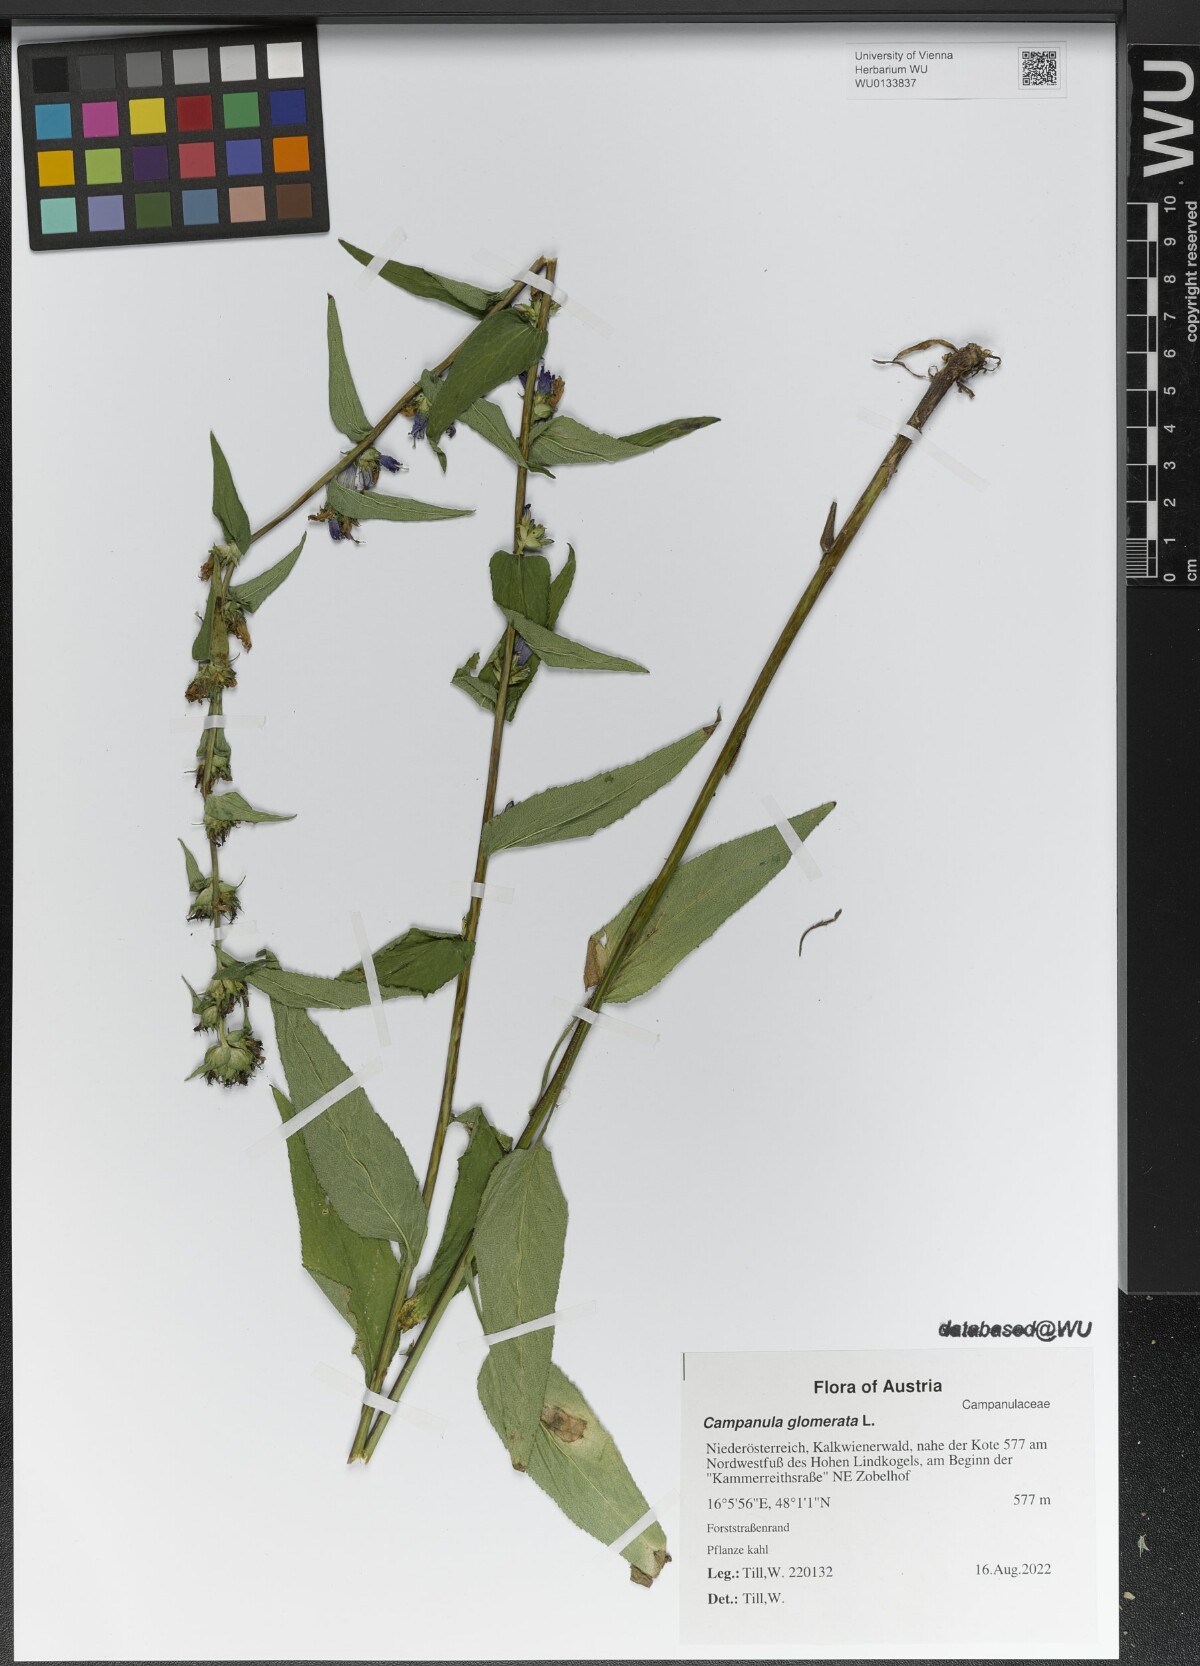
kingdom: Plantae
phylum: Tracheophyta
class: Magnoliopsida
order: Asterales
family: Campanulaceae
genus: Campanula
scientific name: Campanula glomerata
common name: Clustered bellflower
